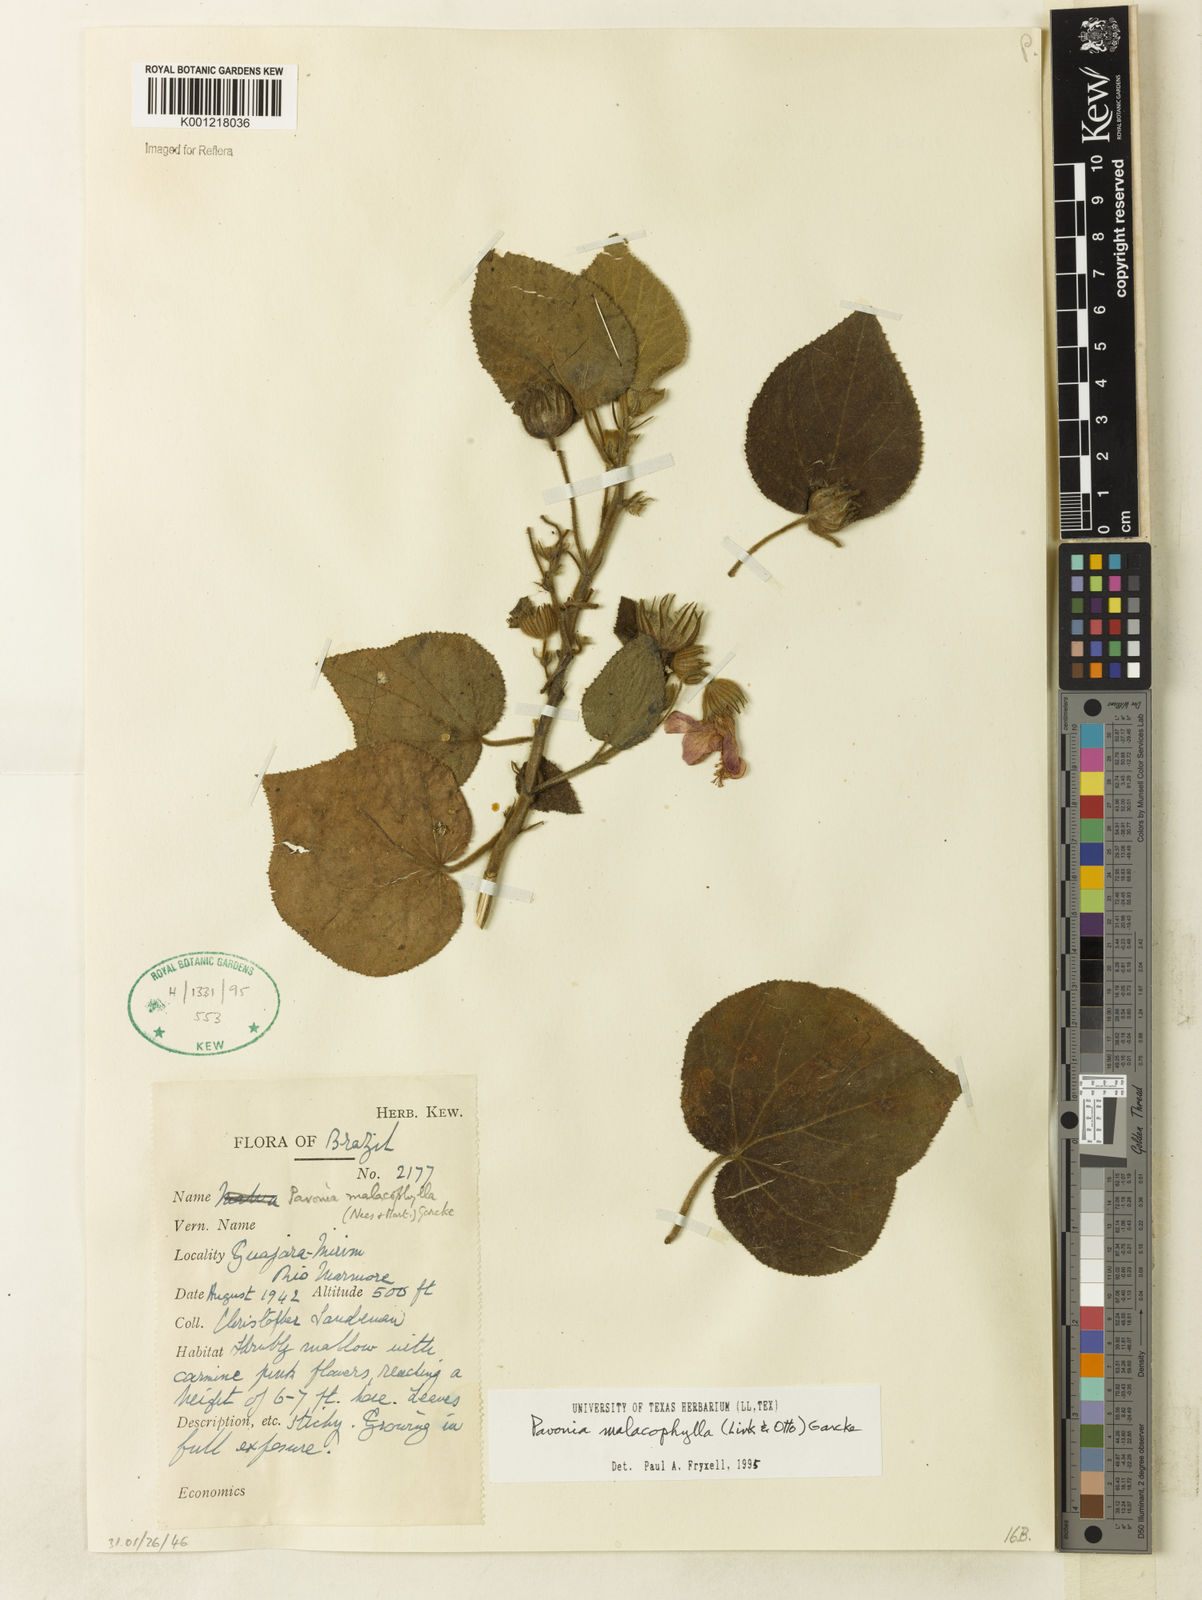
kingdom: Plantae
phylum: Tracheophyta
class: Magnoliopsida
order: Malvales
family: Malvaceae
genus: Pavonia
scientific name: Pavonia malacophylla
